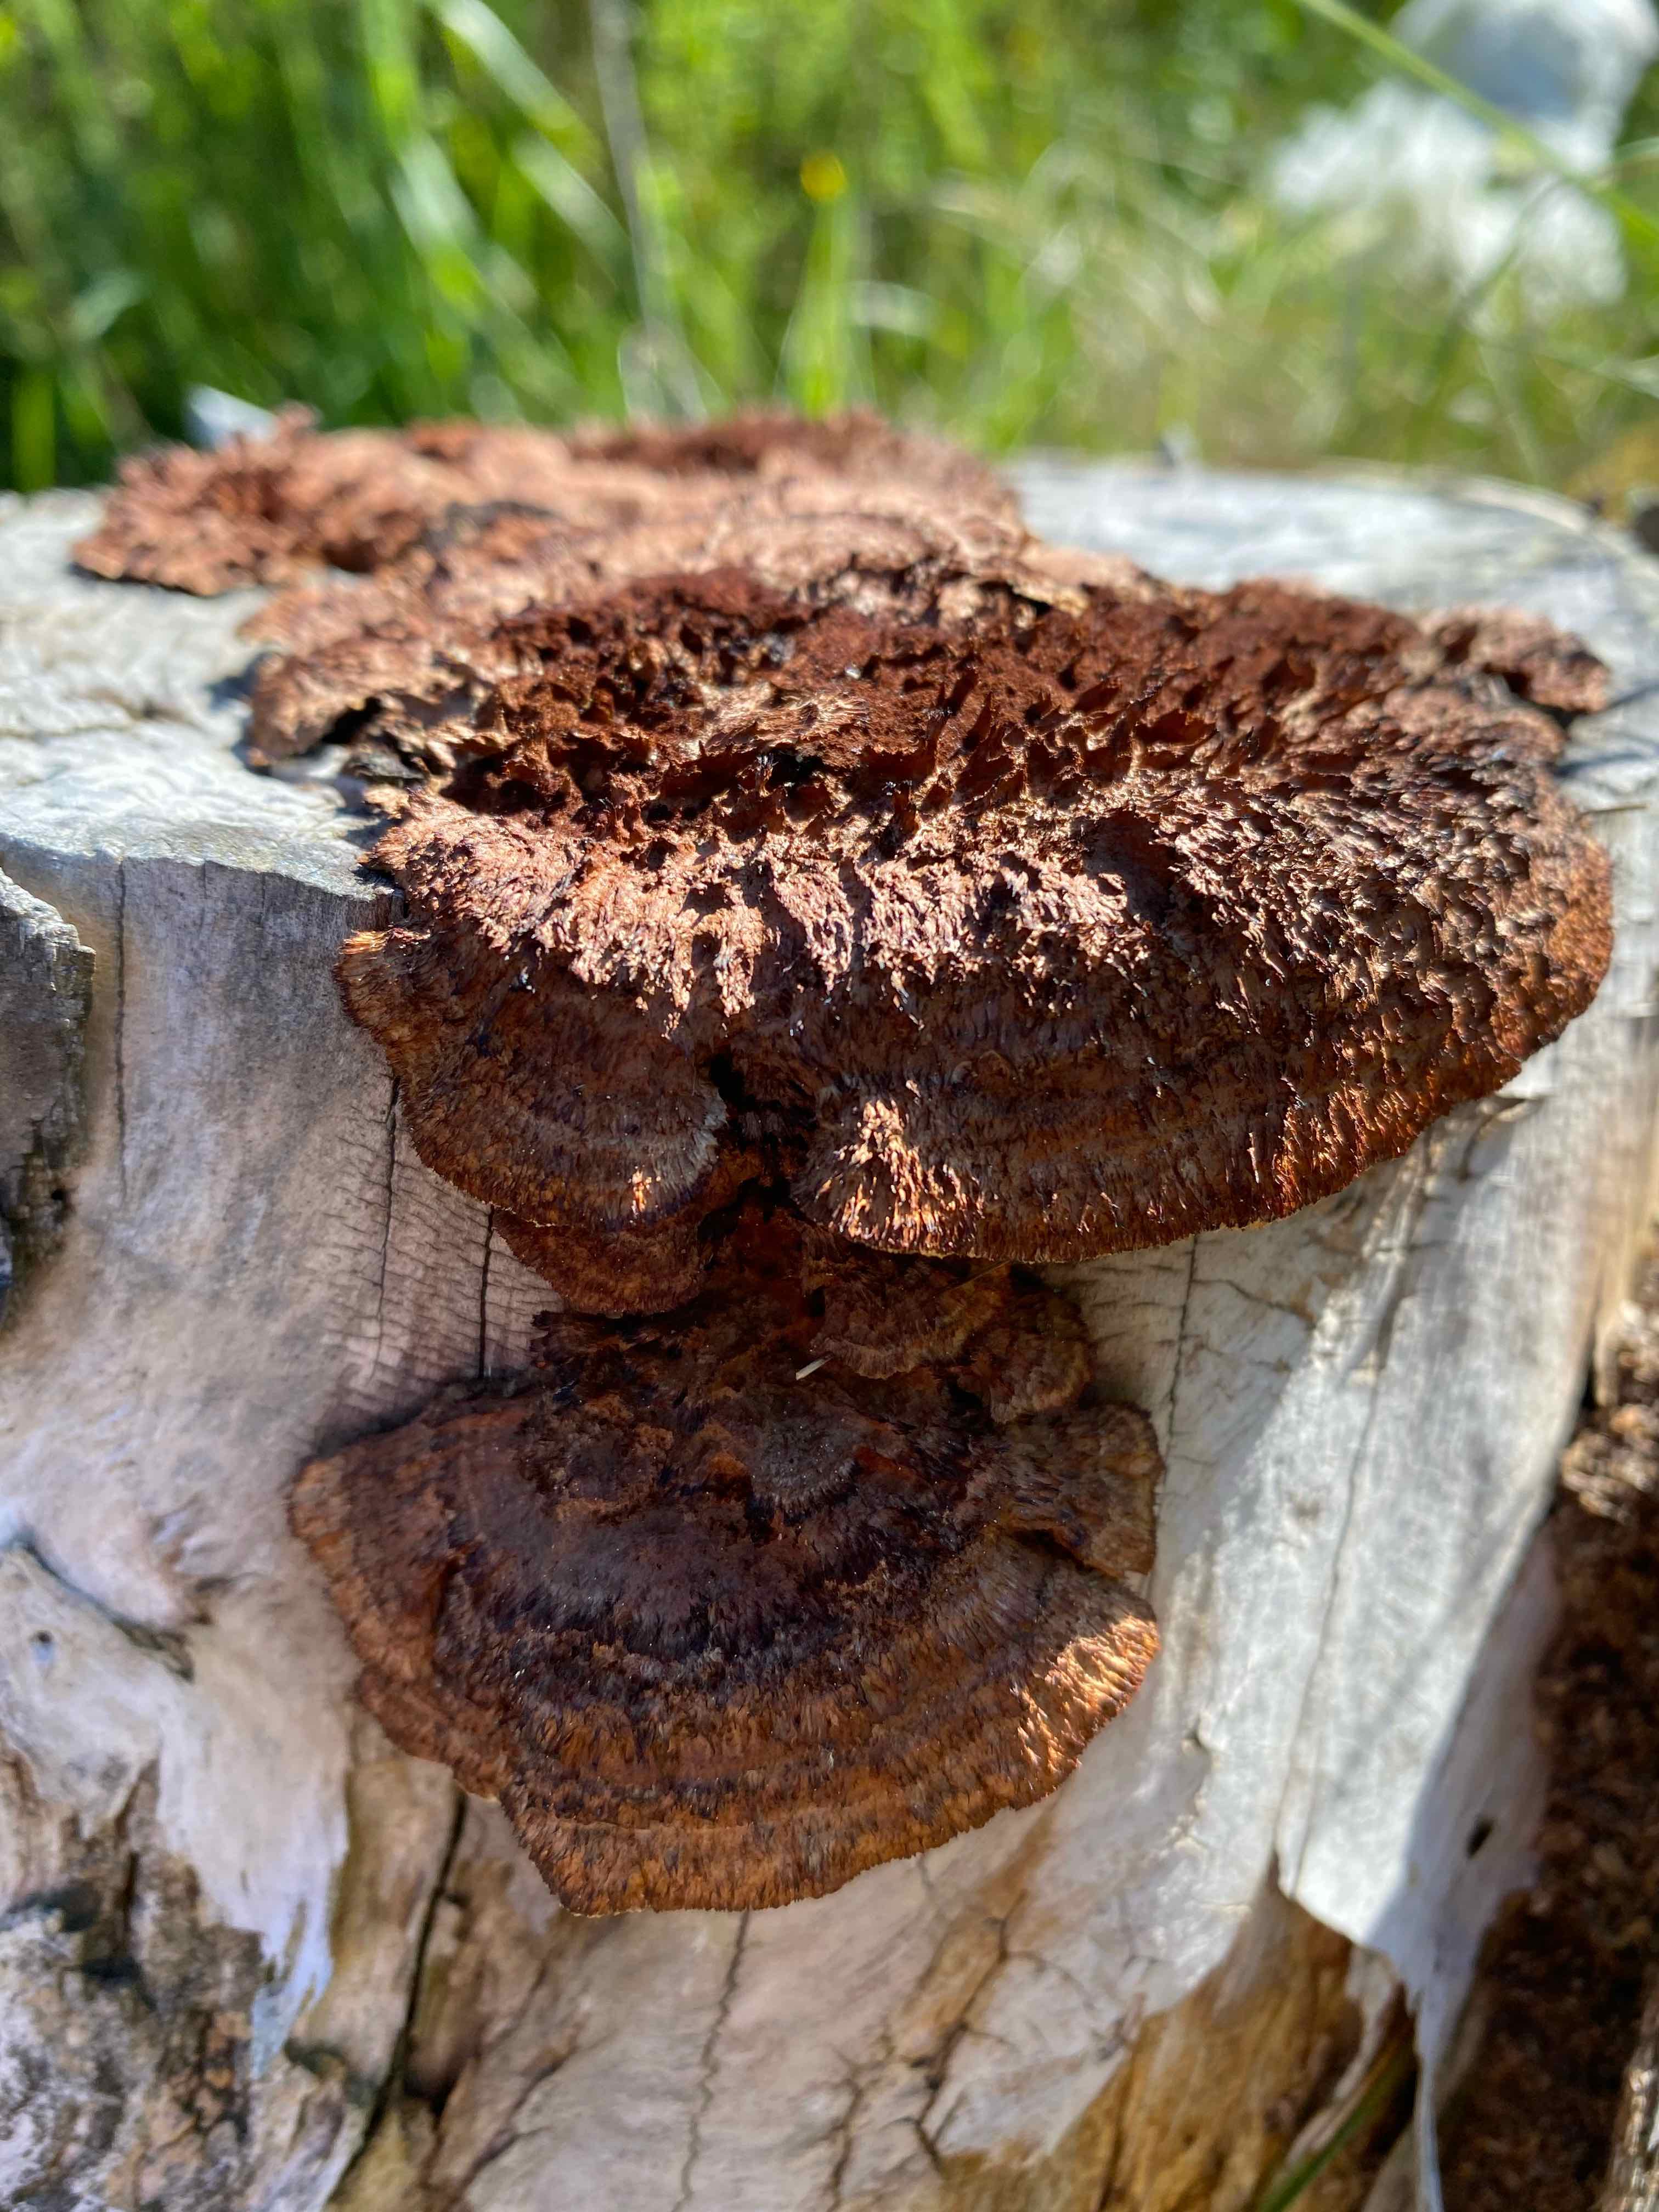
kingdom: Fungi
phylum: Basidiomycota
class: Agaricomycetes
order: Gloeophyllales
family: Gloeophyllaceae
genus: Gloeophyllum
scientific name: Gloeophyllum sepiarium
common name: fyrre-korkhat
